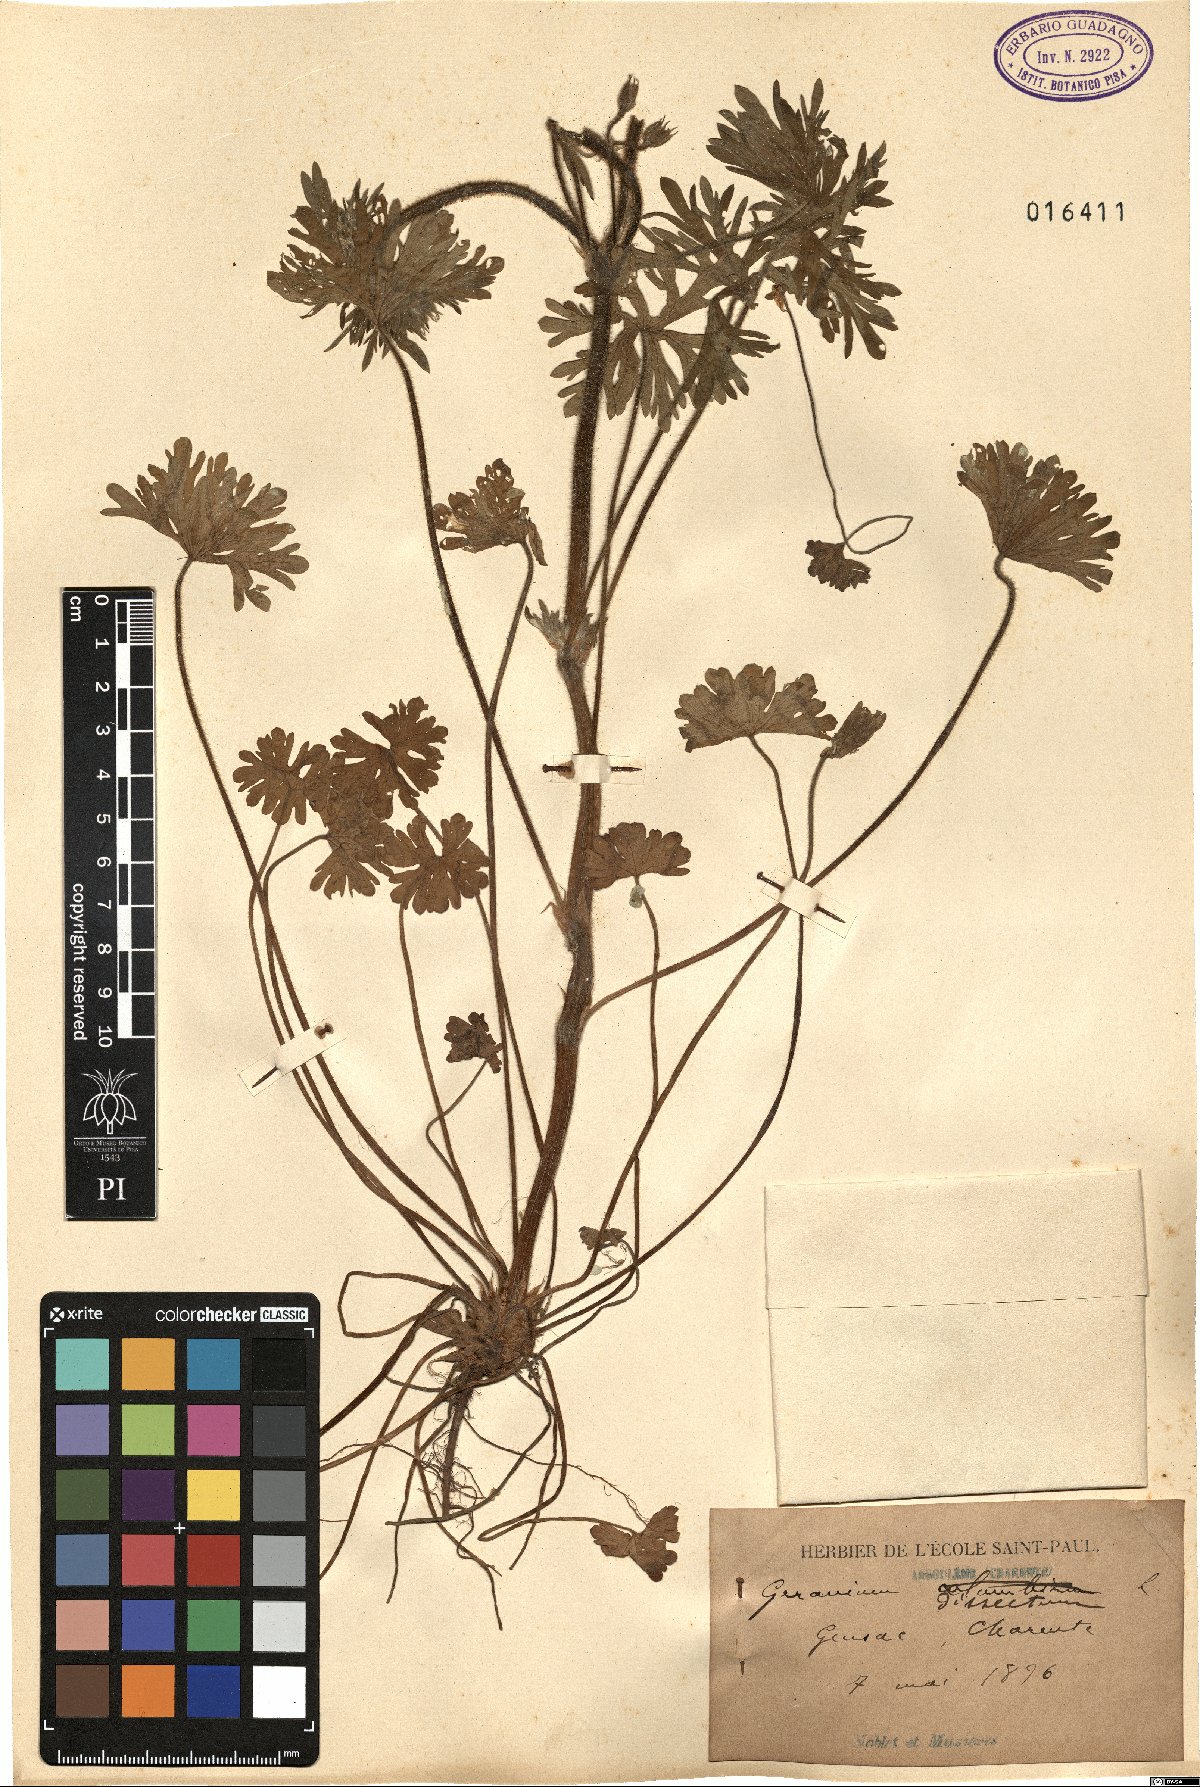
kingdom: Plantae
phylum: Tracheophyta
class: Magnoliopsida
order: Geraniales
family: Geraniaceae
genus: Geranium
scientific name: Geranium dissectum
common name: Cut-leaved crane's-bill
